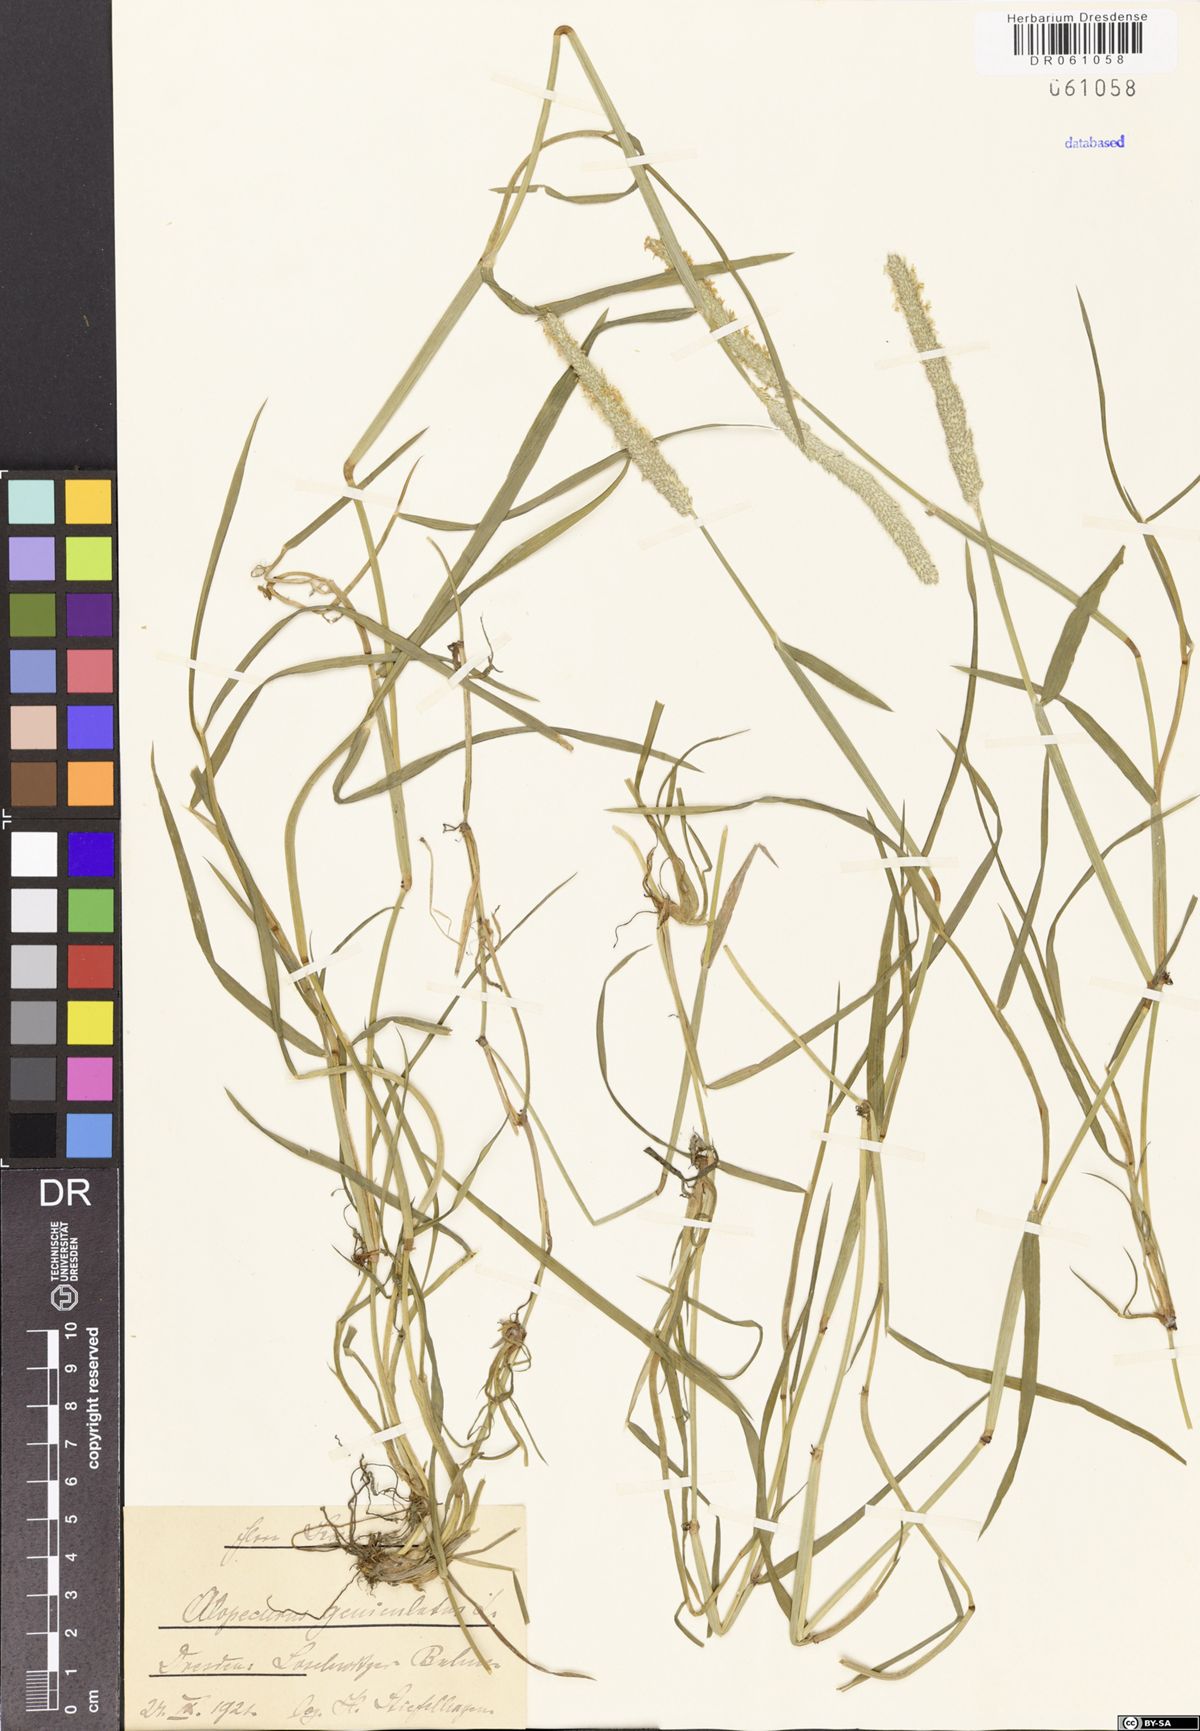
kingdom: Plantae
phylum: Tracheophyta
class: Liliopsida
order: Poales
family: Poaceae
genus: Alopecurus
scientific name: Alopecurus geniculatus
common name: Water foxtail
